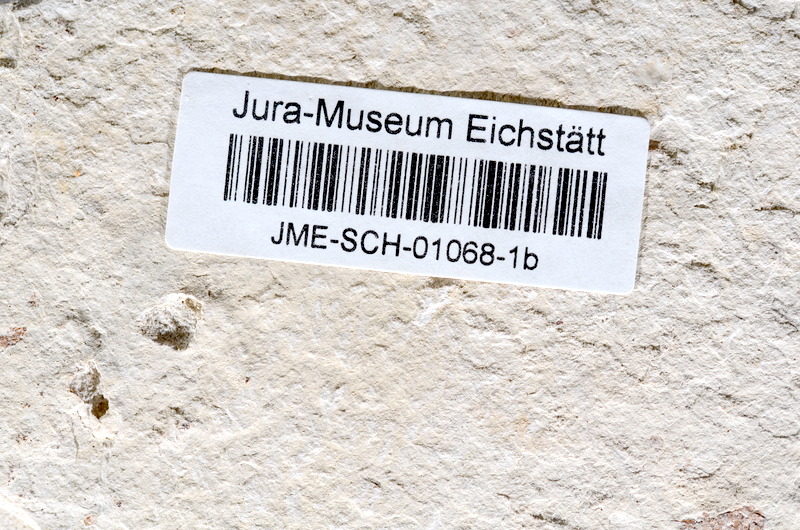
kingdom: Animalia
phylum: Chordata
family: Ascalaboidae
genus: Tharsis
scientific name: Tharsis dubius
